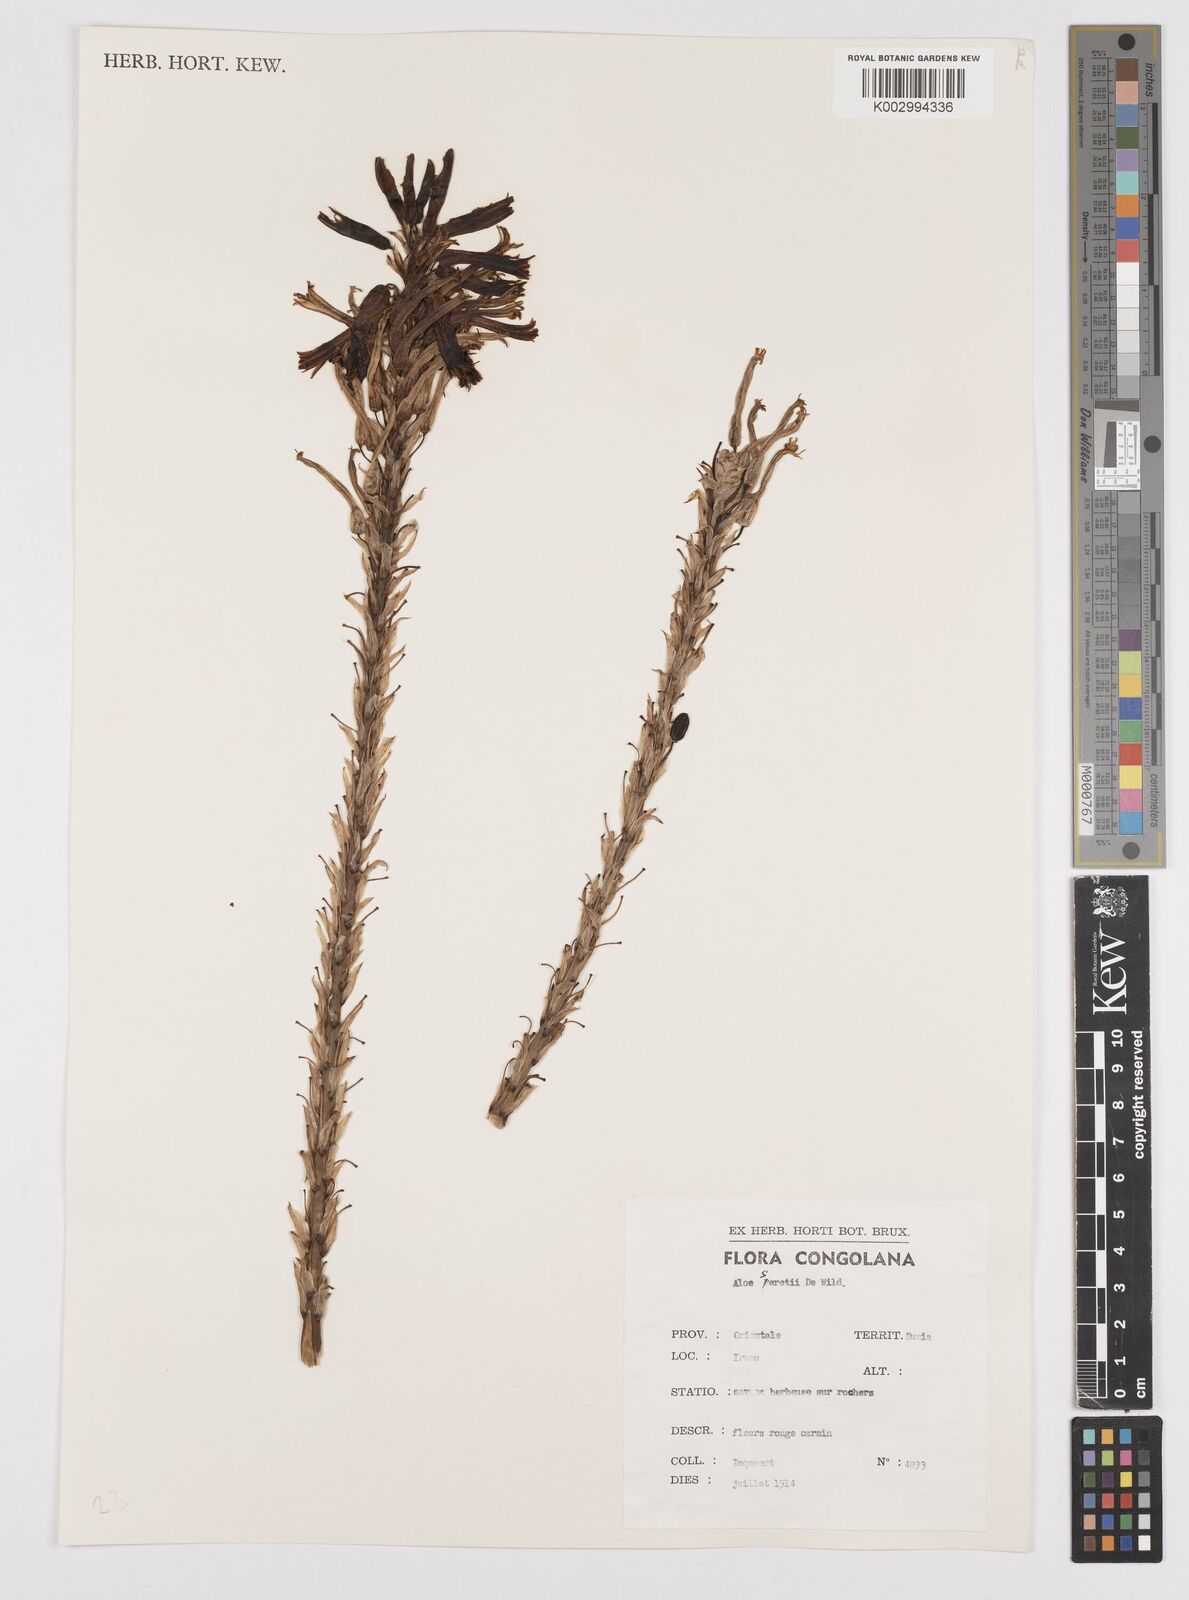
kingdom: Plantae
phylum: Tracheophyta
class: Liliopsida
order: Asparagales
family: Asphodelaceae
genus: Aloe
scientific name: Aloe seretii
